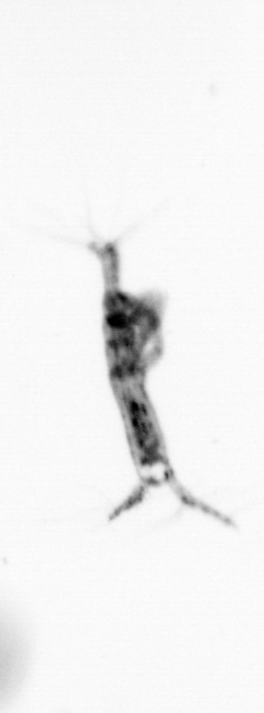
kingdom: Animalia
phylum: Arthropoda
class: Copepoda
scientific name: Copepoda
